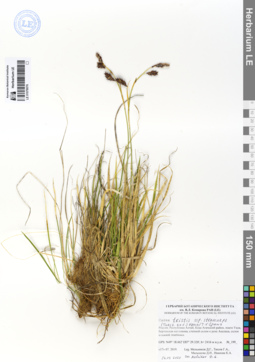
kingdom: Plantae
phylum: Tracheophyta
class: Liliopsida
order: Poales
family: Cyperaceae
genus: Carex
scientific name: Carex stenocarpa
